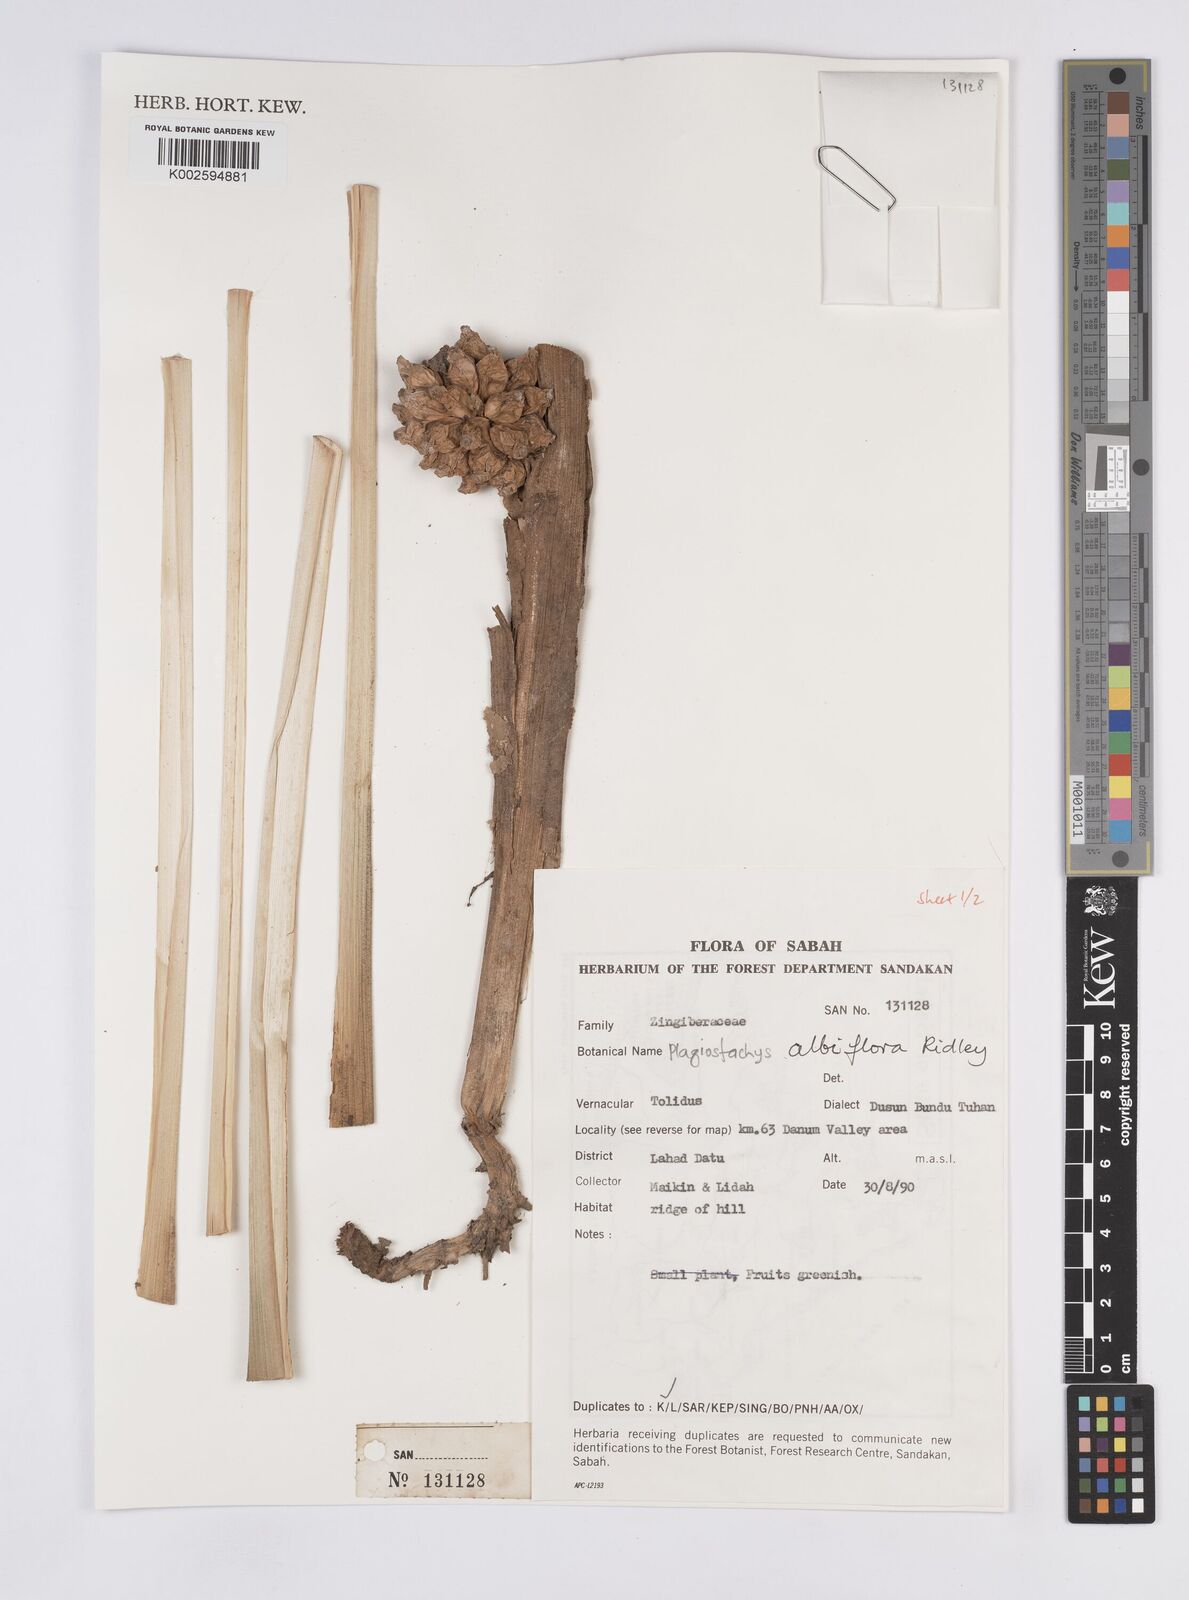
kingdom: Plantae
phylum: Tracheophyta
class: Liliopsida
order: Zingiberales
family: Zingiberaceae
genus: Plagiostachys
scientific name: Plagiostachys albiflora
